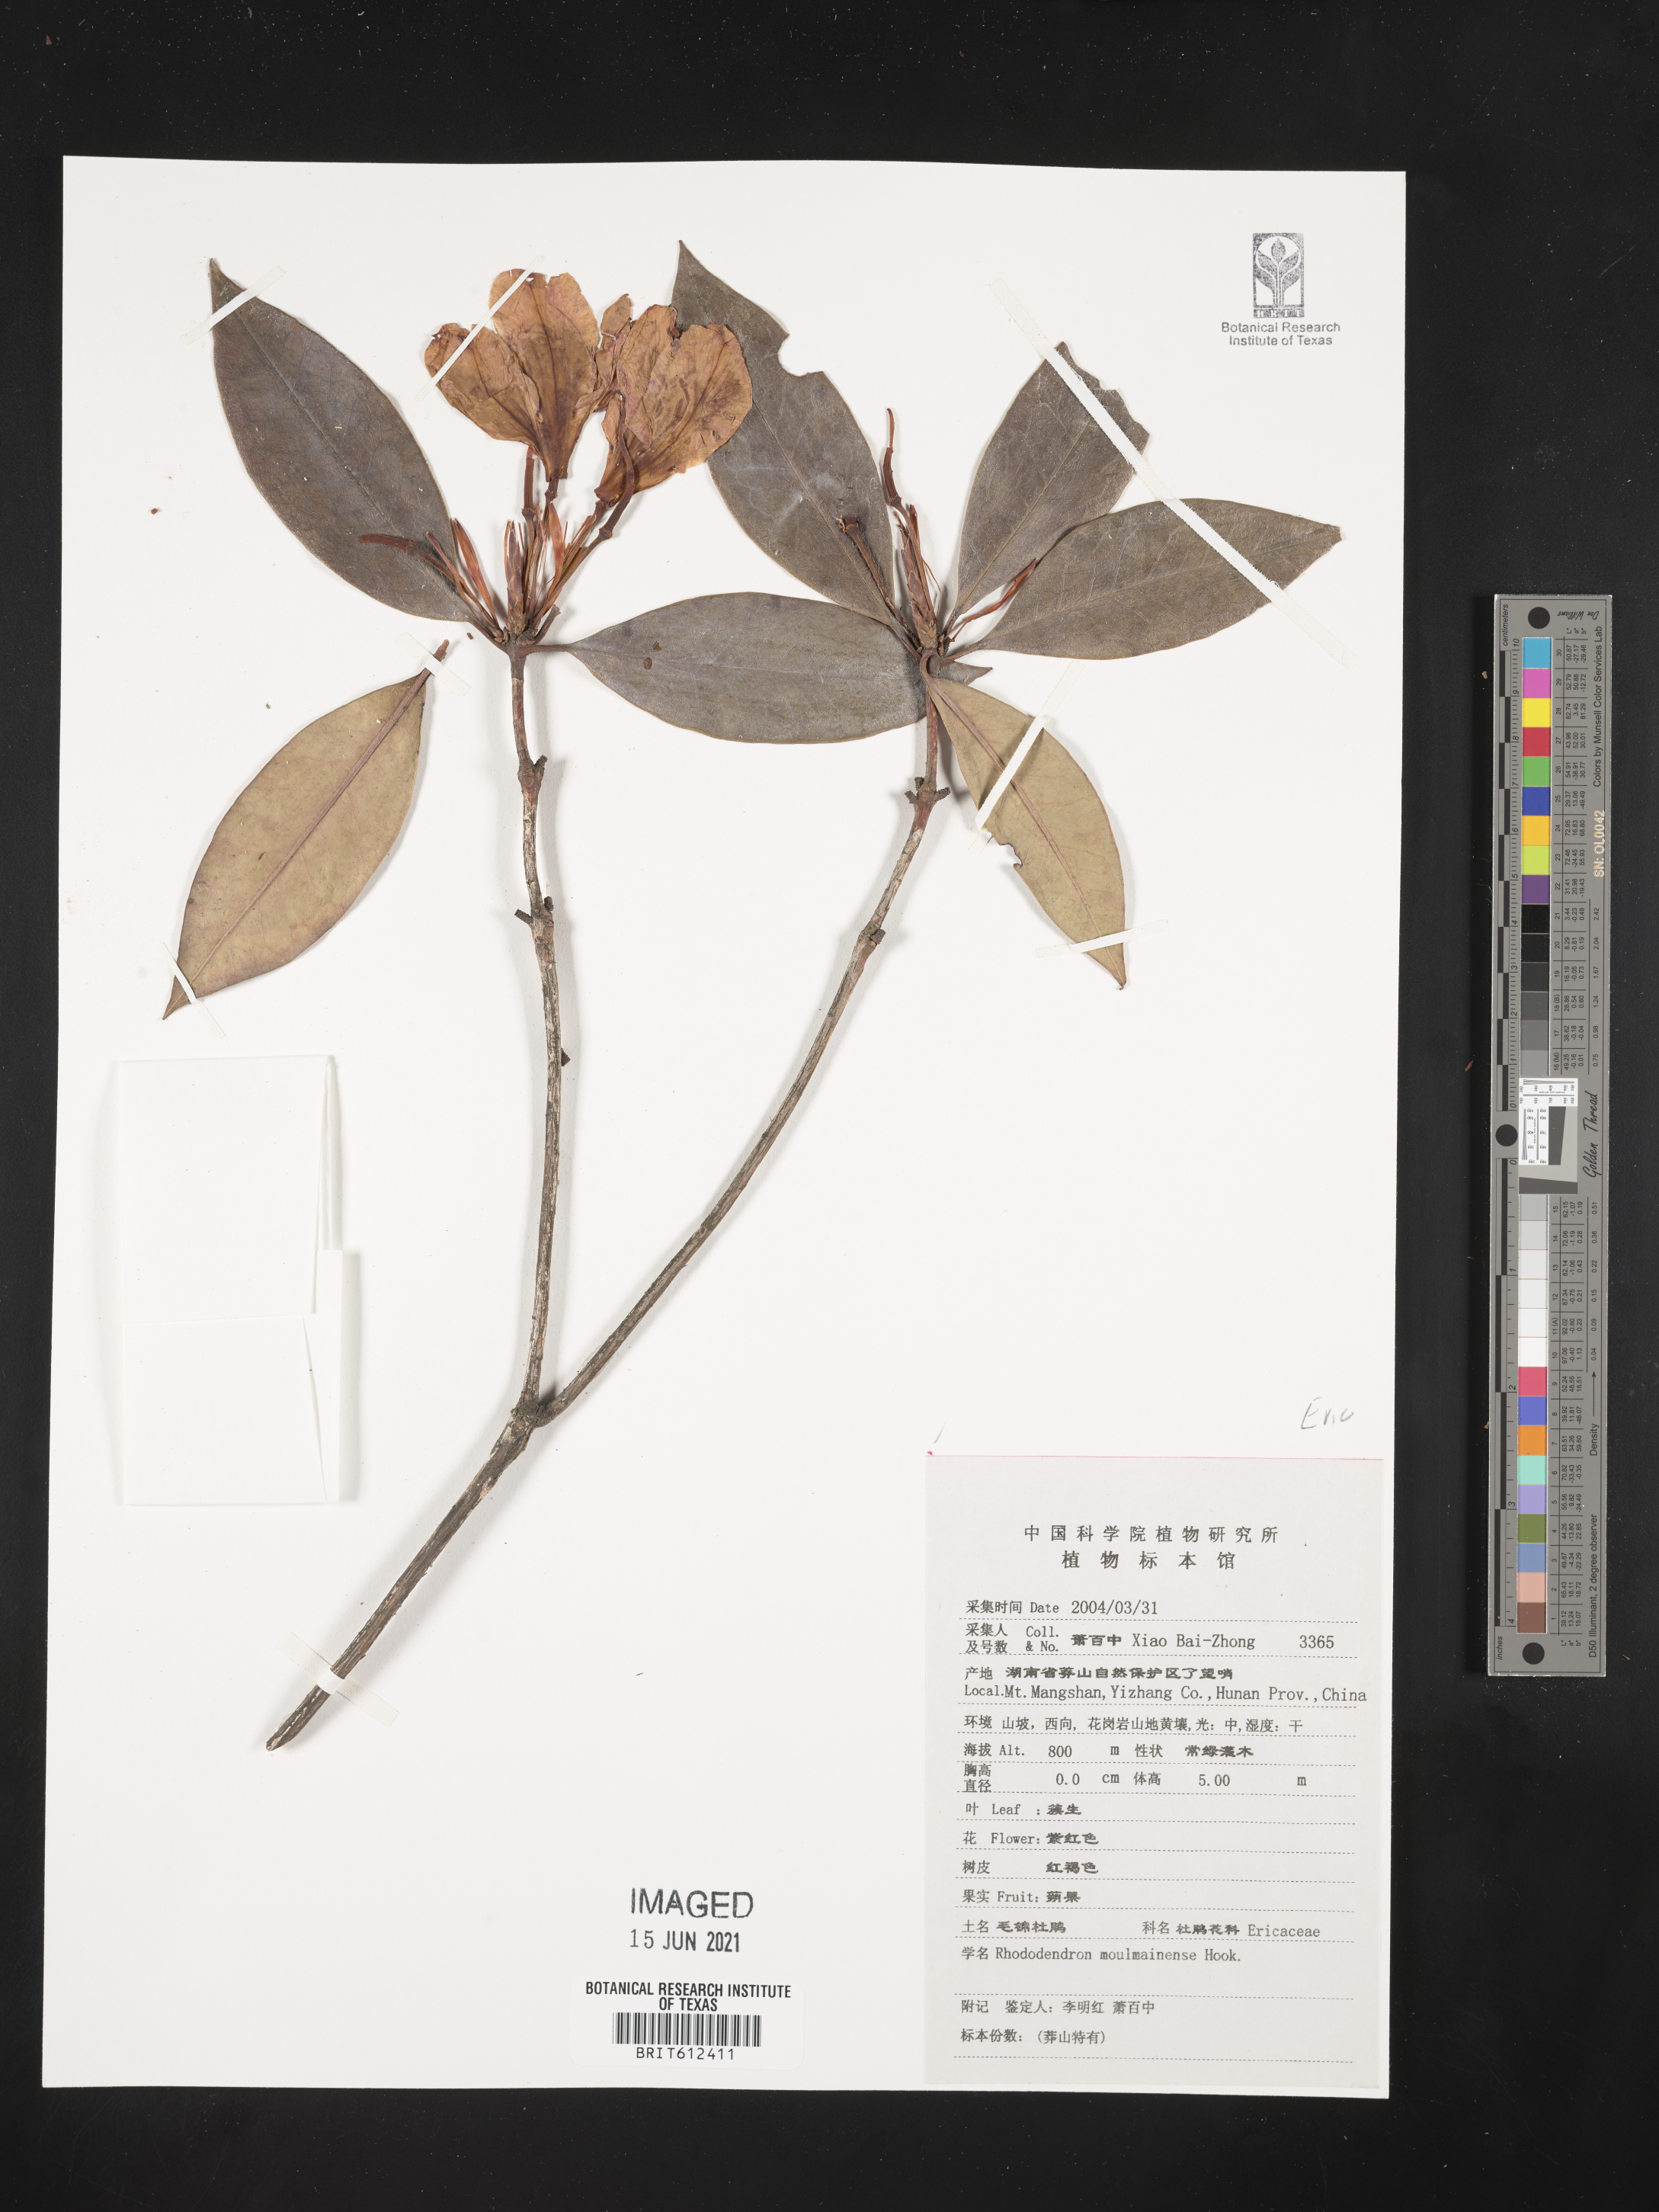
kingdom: Plantae
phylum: Tracheophyta
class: Magnoliopsida
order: Ericales
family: Ericaceae
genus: Rhododendron
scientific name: Rhododendron moulmainense
